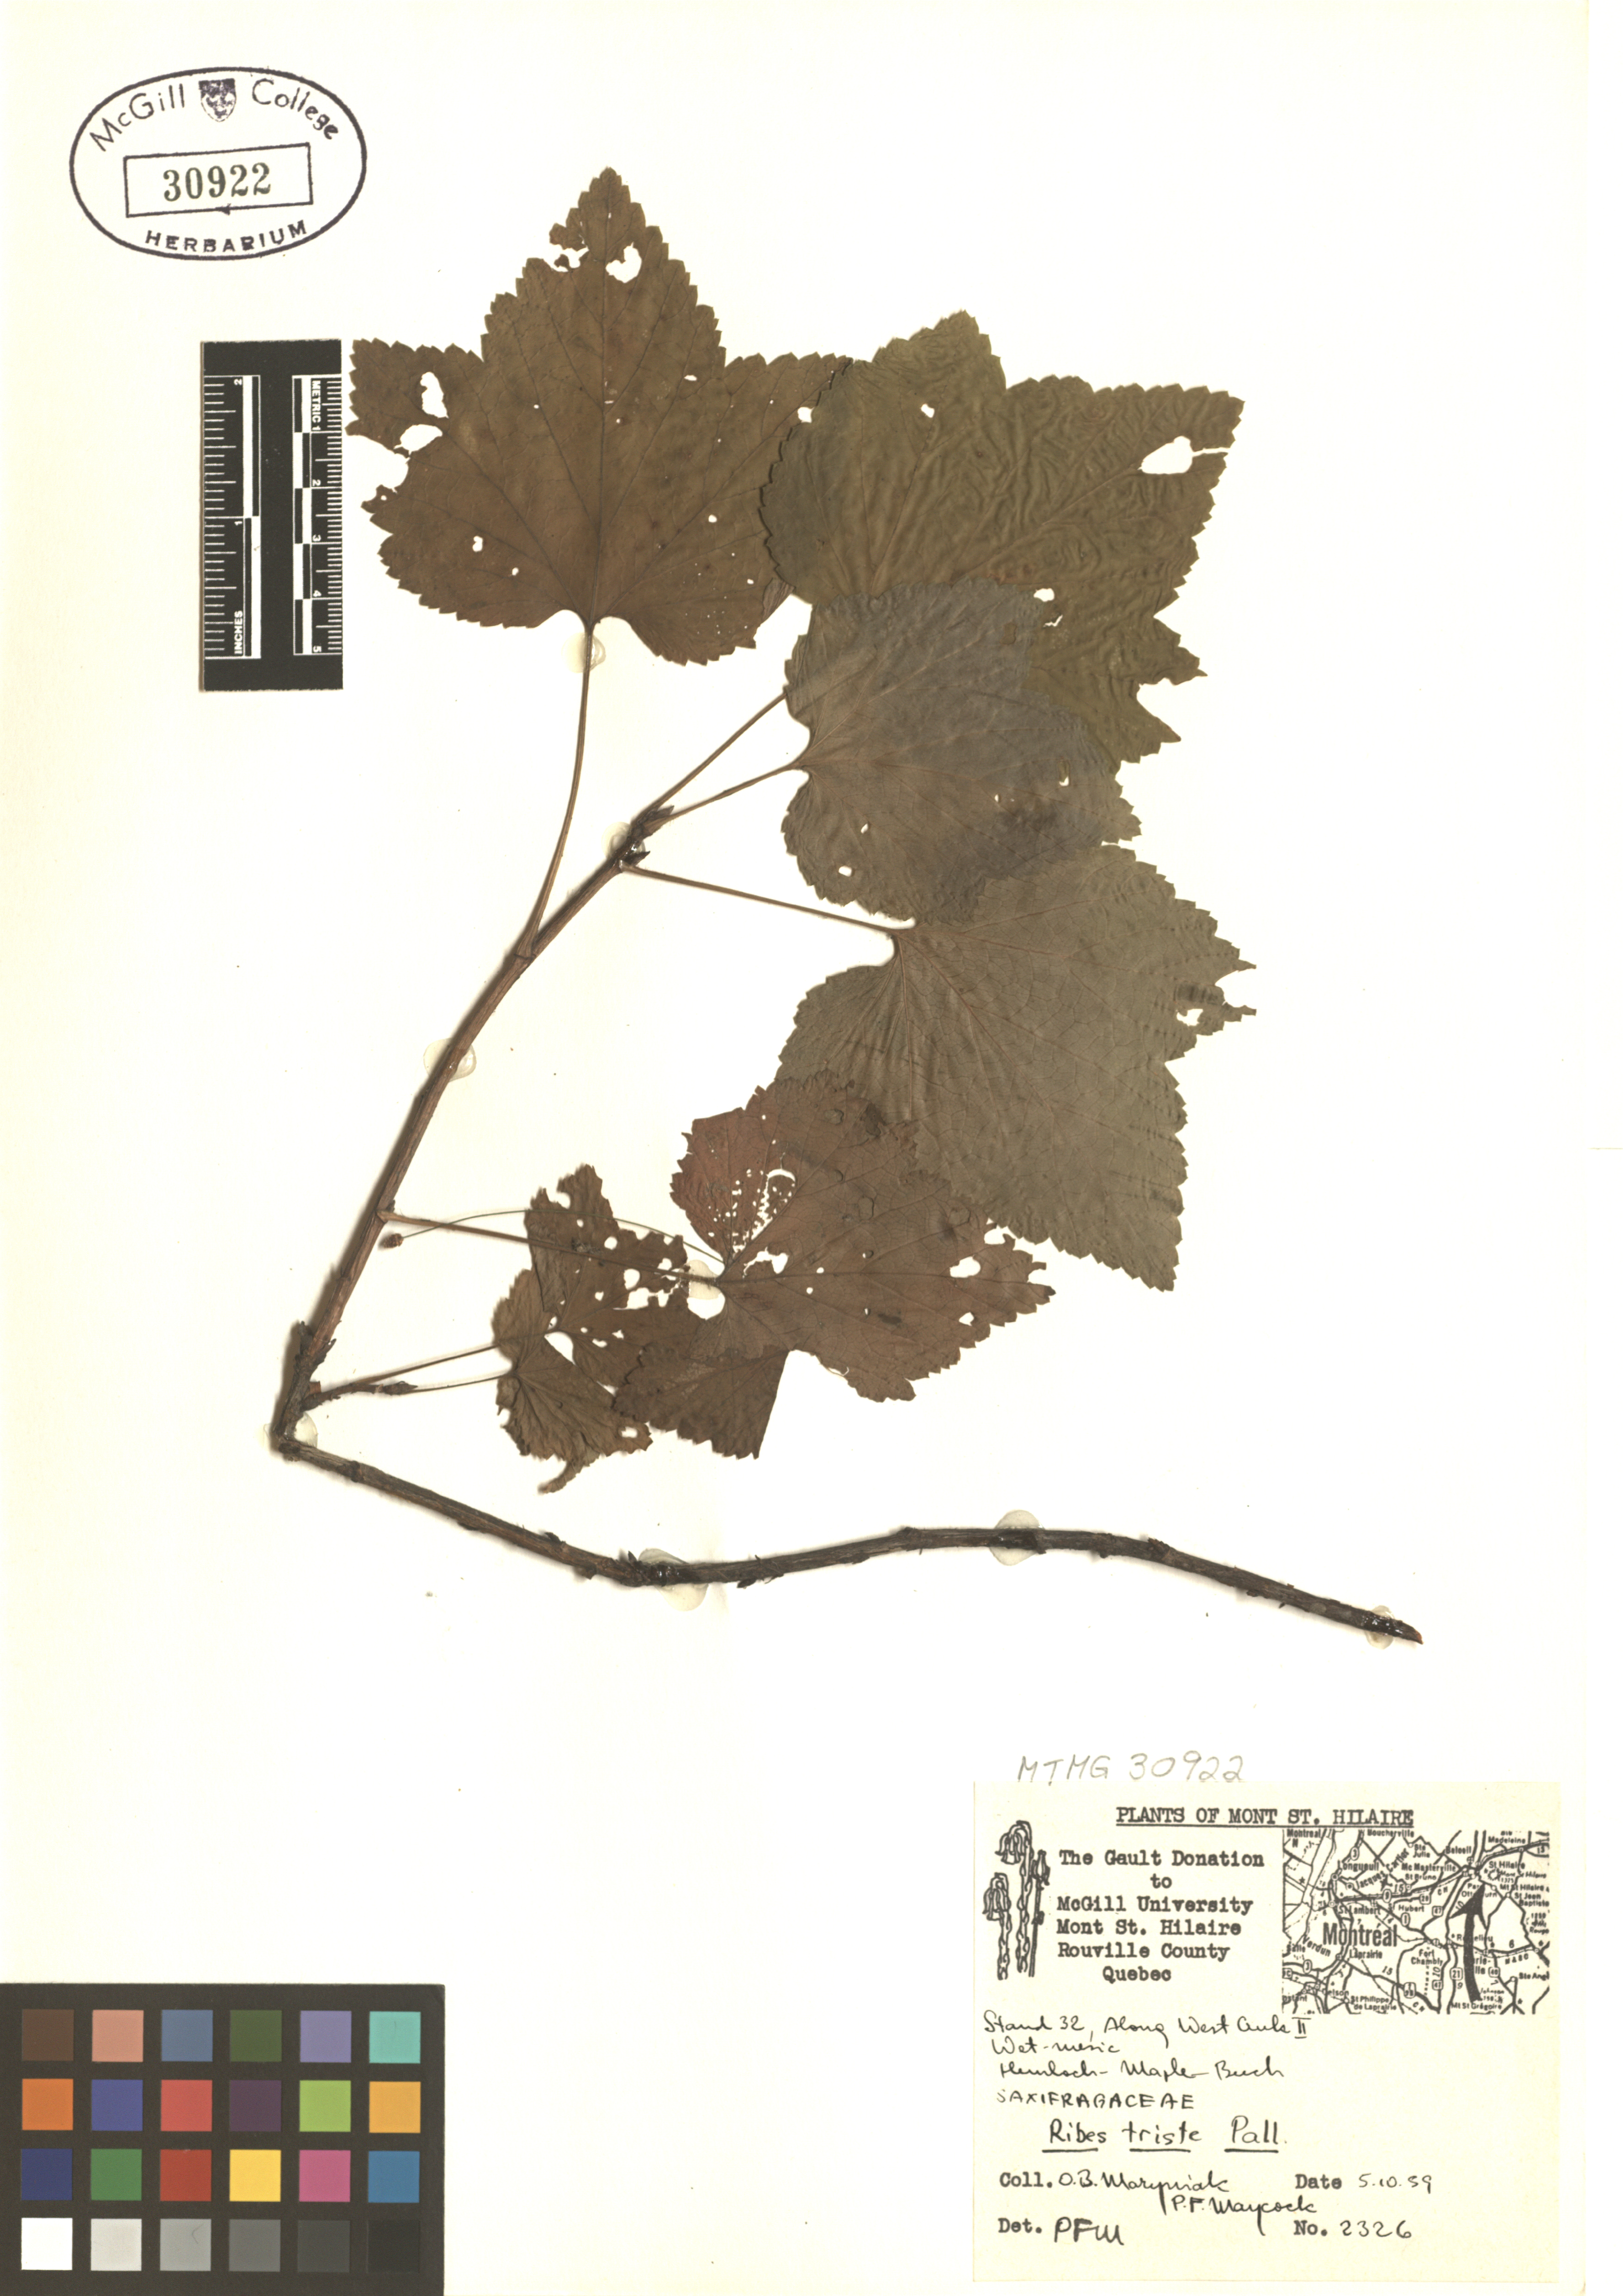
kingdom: Plantae
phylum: Tracheophyta
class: Magnoliopsida
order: Saxifragales
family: Grossulariaceae
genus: Ribes
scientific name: Ribes triste
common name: Swamp red currant
